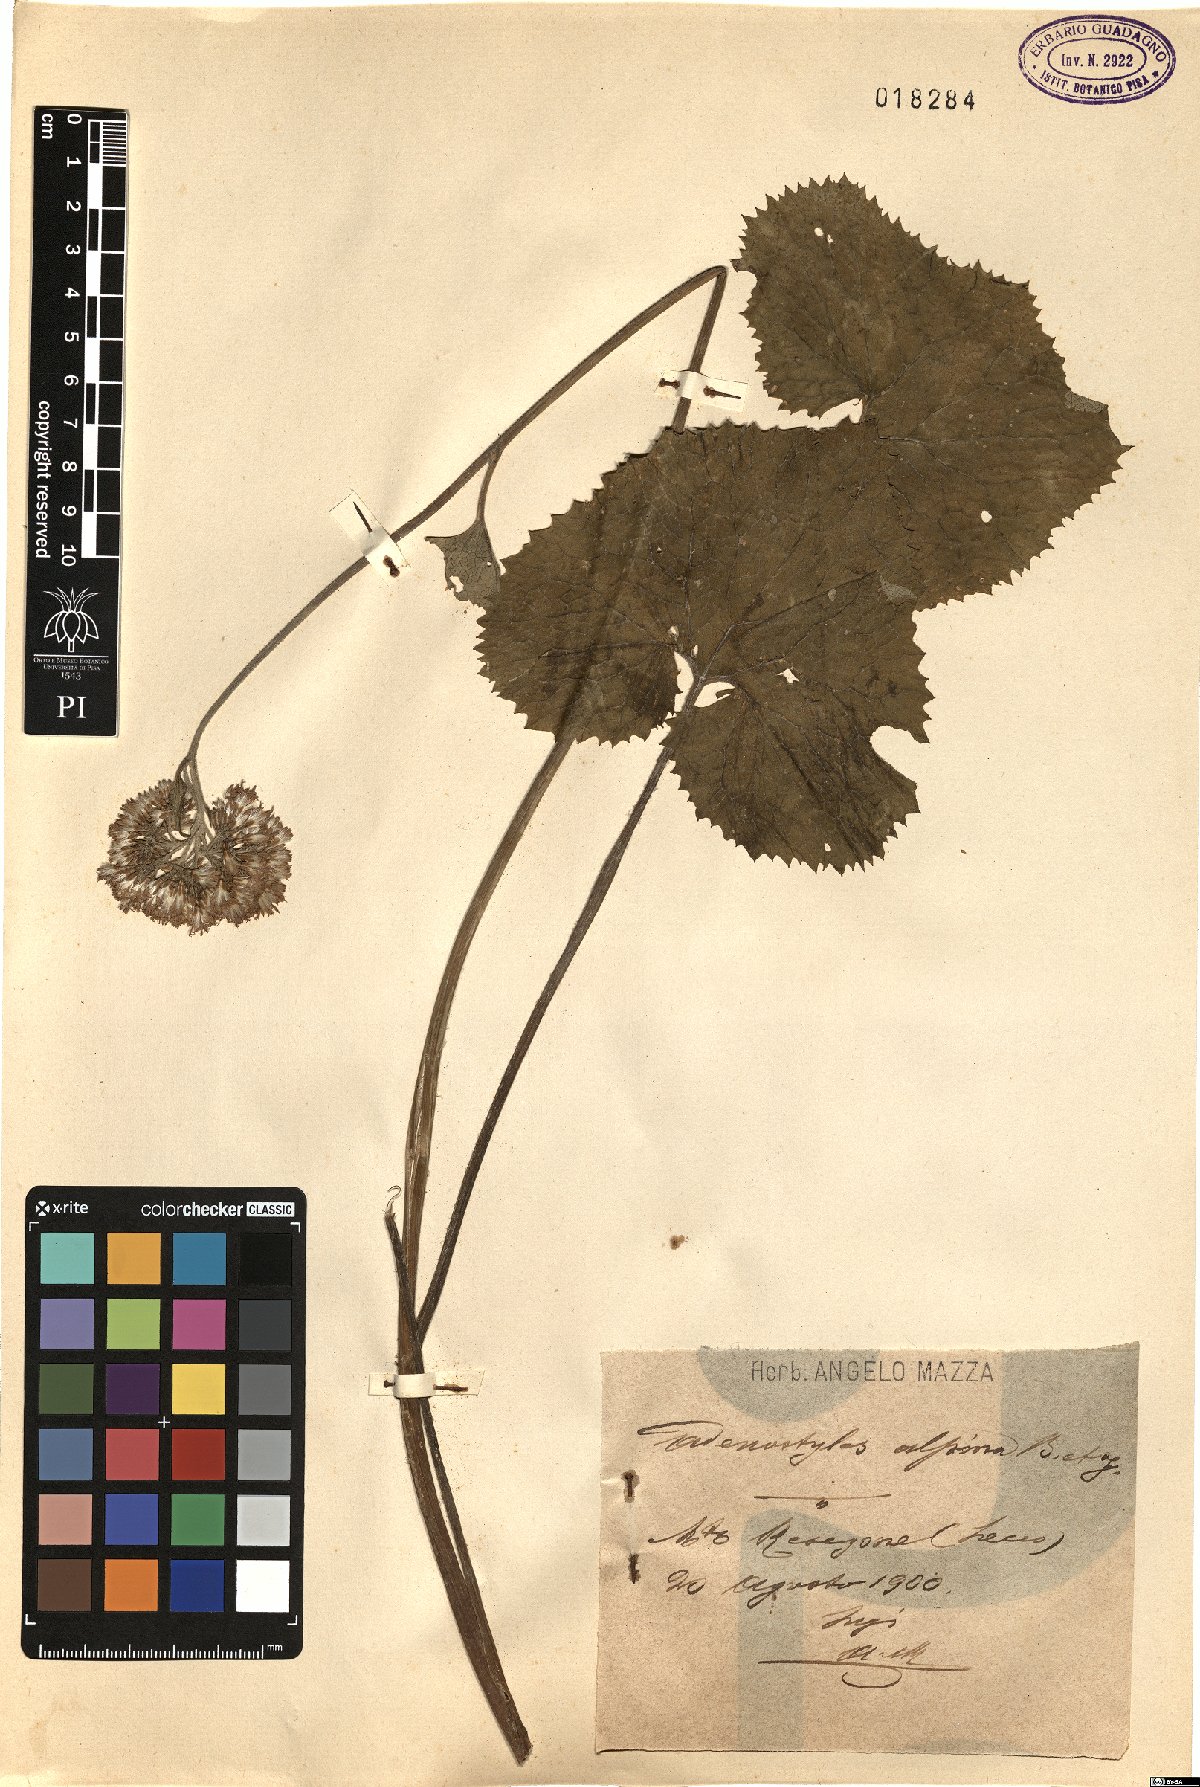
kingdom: Plantae
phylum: Tracheophyta
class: Magnoliopsida
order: Asterales
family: Asteraceae
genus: Adenostyles
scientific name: Adenostyles alpina
